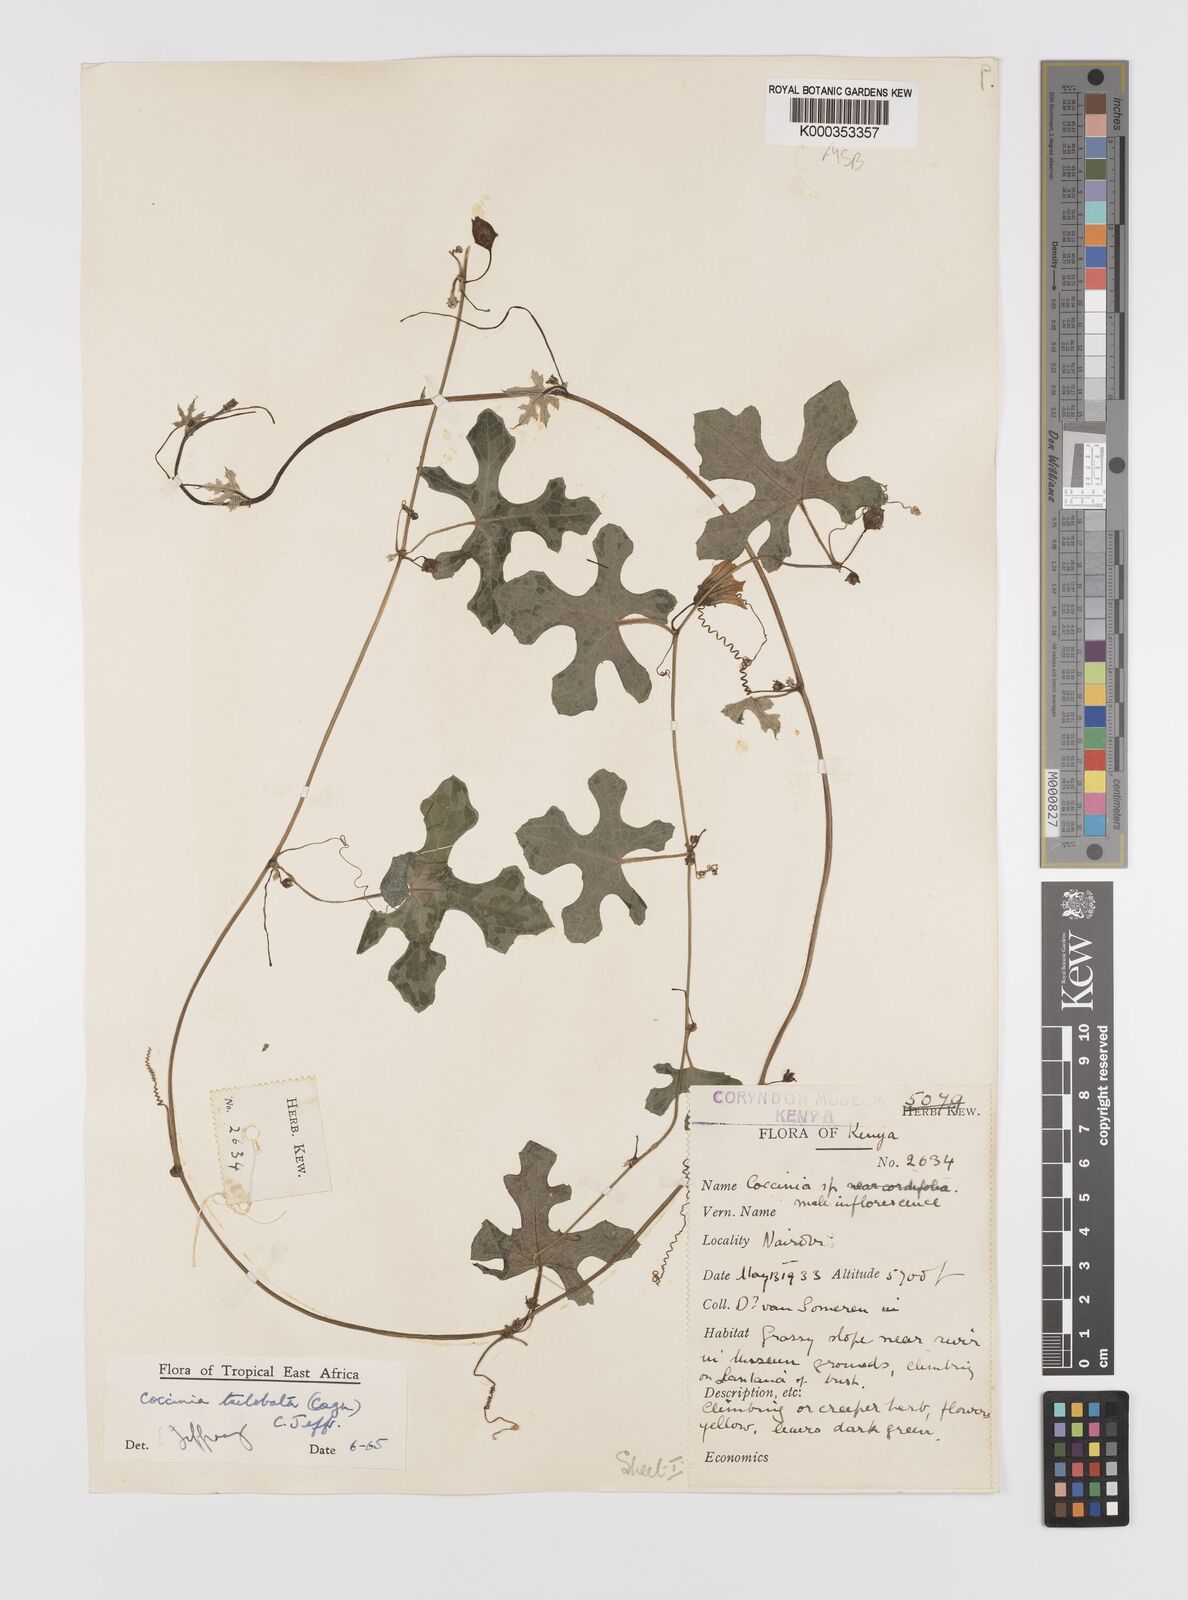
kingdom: Plantae
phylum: Tracheophyta
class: Magnoliopsida
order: Cucurbitales
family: Cucurbitaceae
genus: Coccinia
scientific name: Coccinia trilobata
